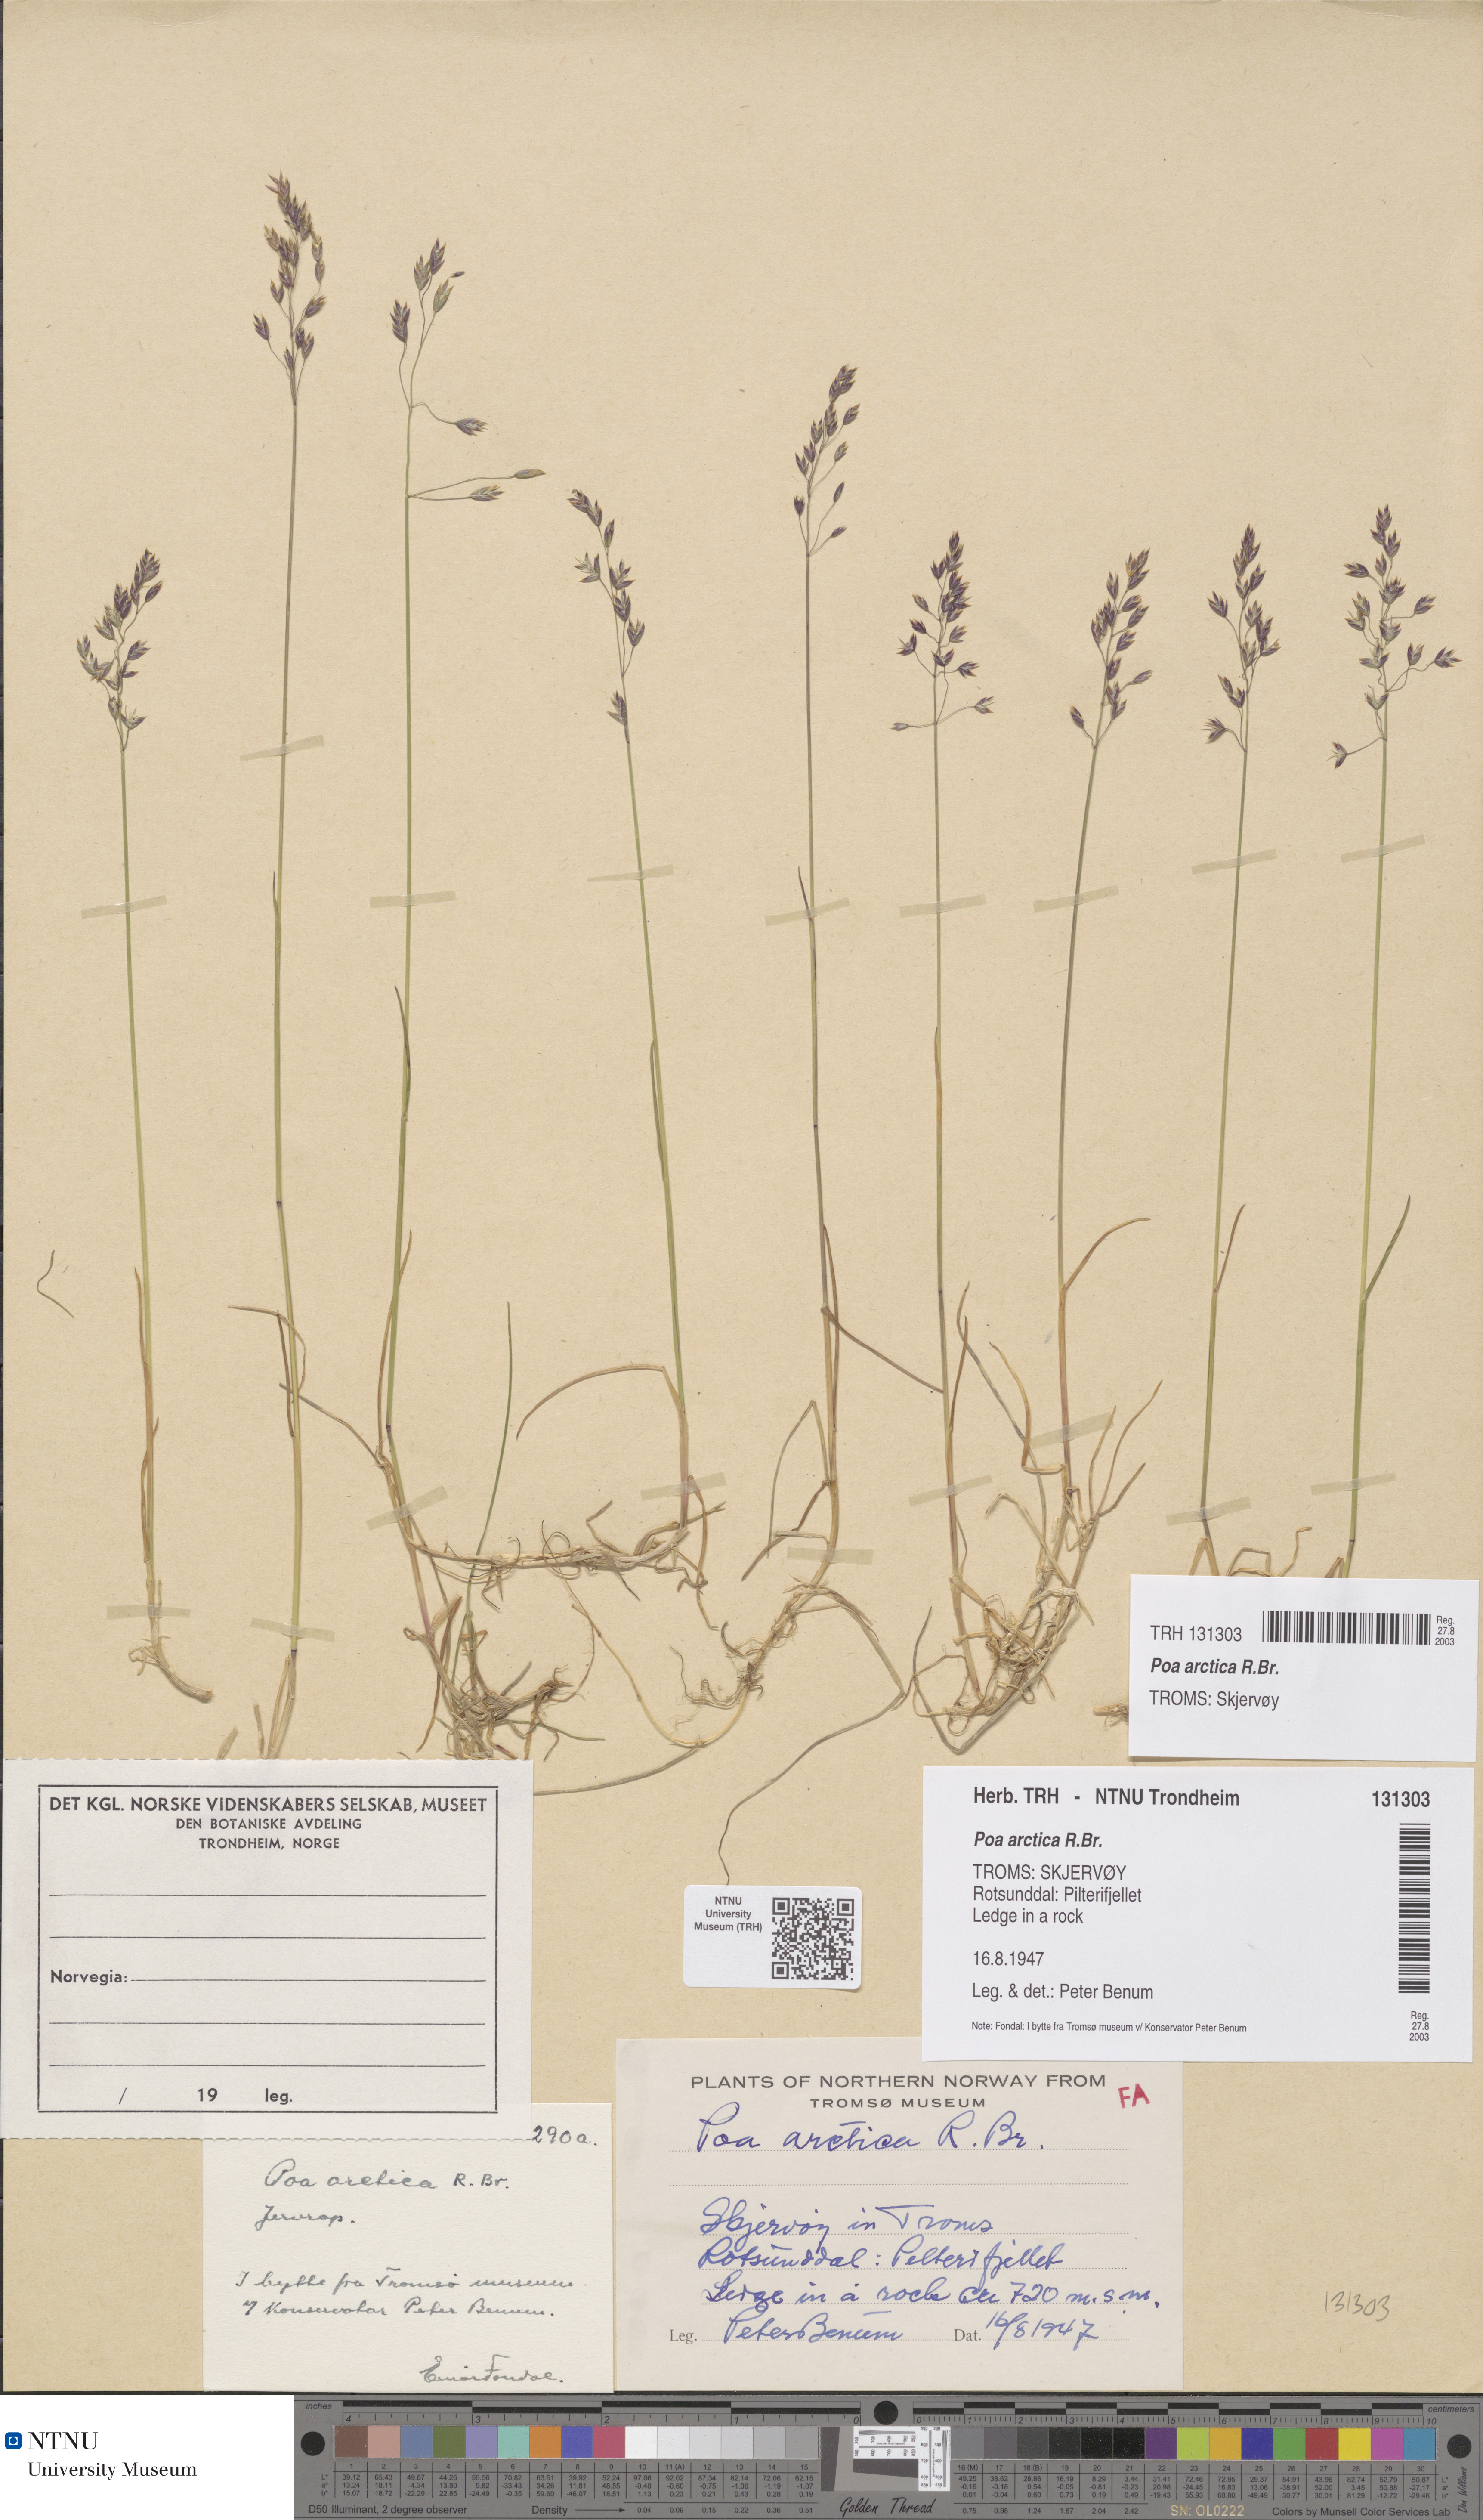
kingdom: Plantae
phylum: Tracheophyta
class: Liliopsida
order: Poales
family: Poaceae
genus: Poa
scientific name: Poa arctica
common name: Arctic bluegrass
